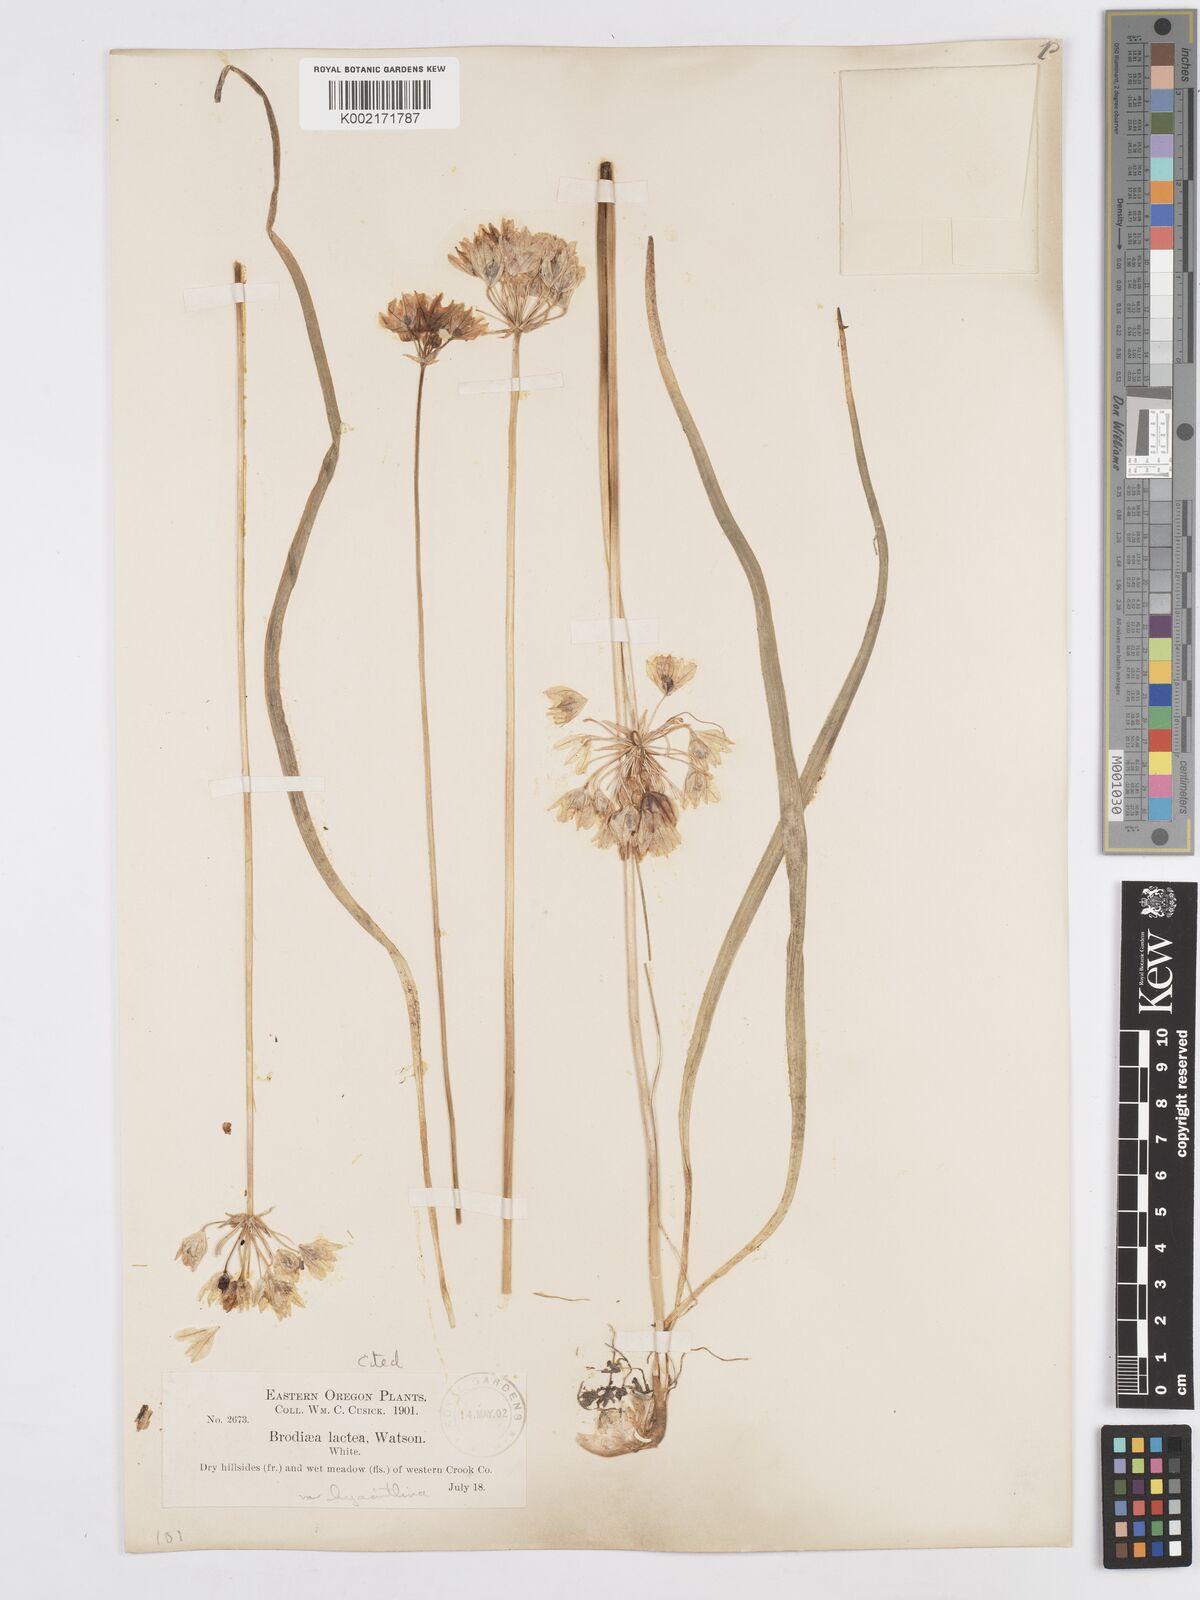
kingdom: Plantae
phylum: Tracheophyta
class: Liliopsida
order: Asparagales
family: Asparagaceae
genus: Triteleia
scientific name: Triteleia hyacinthina
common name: White brodiaea
